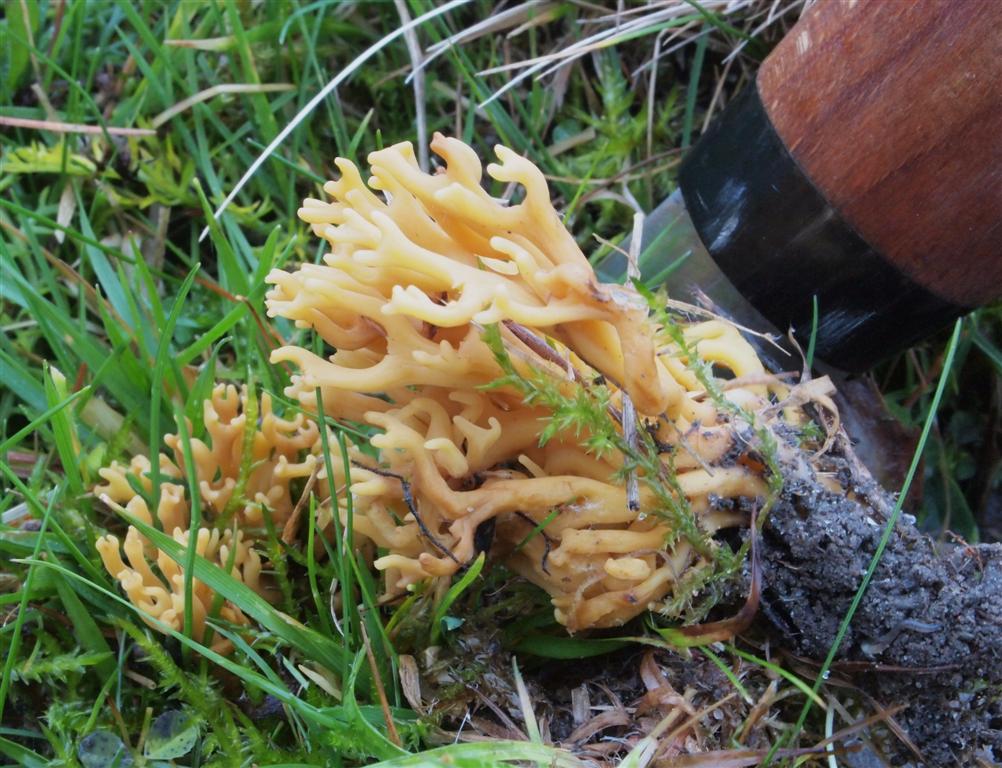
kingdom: Fungi
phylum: Basidiomycota
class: Agaricomycetes
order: Agaricales
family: Clavariaceae
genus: Clavulinopsis
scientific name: Clavulinopsis corniculata
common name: eng-køllesvamp
